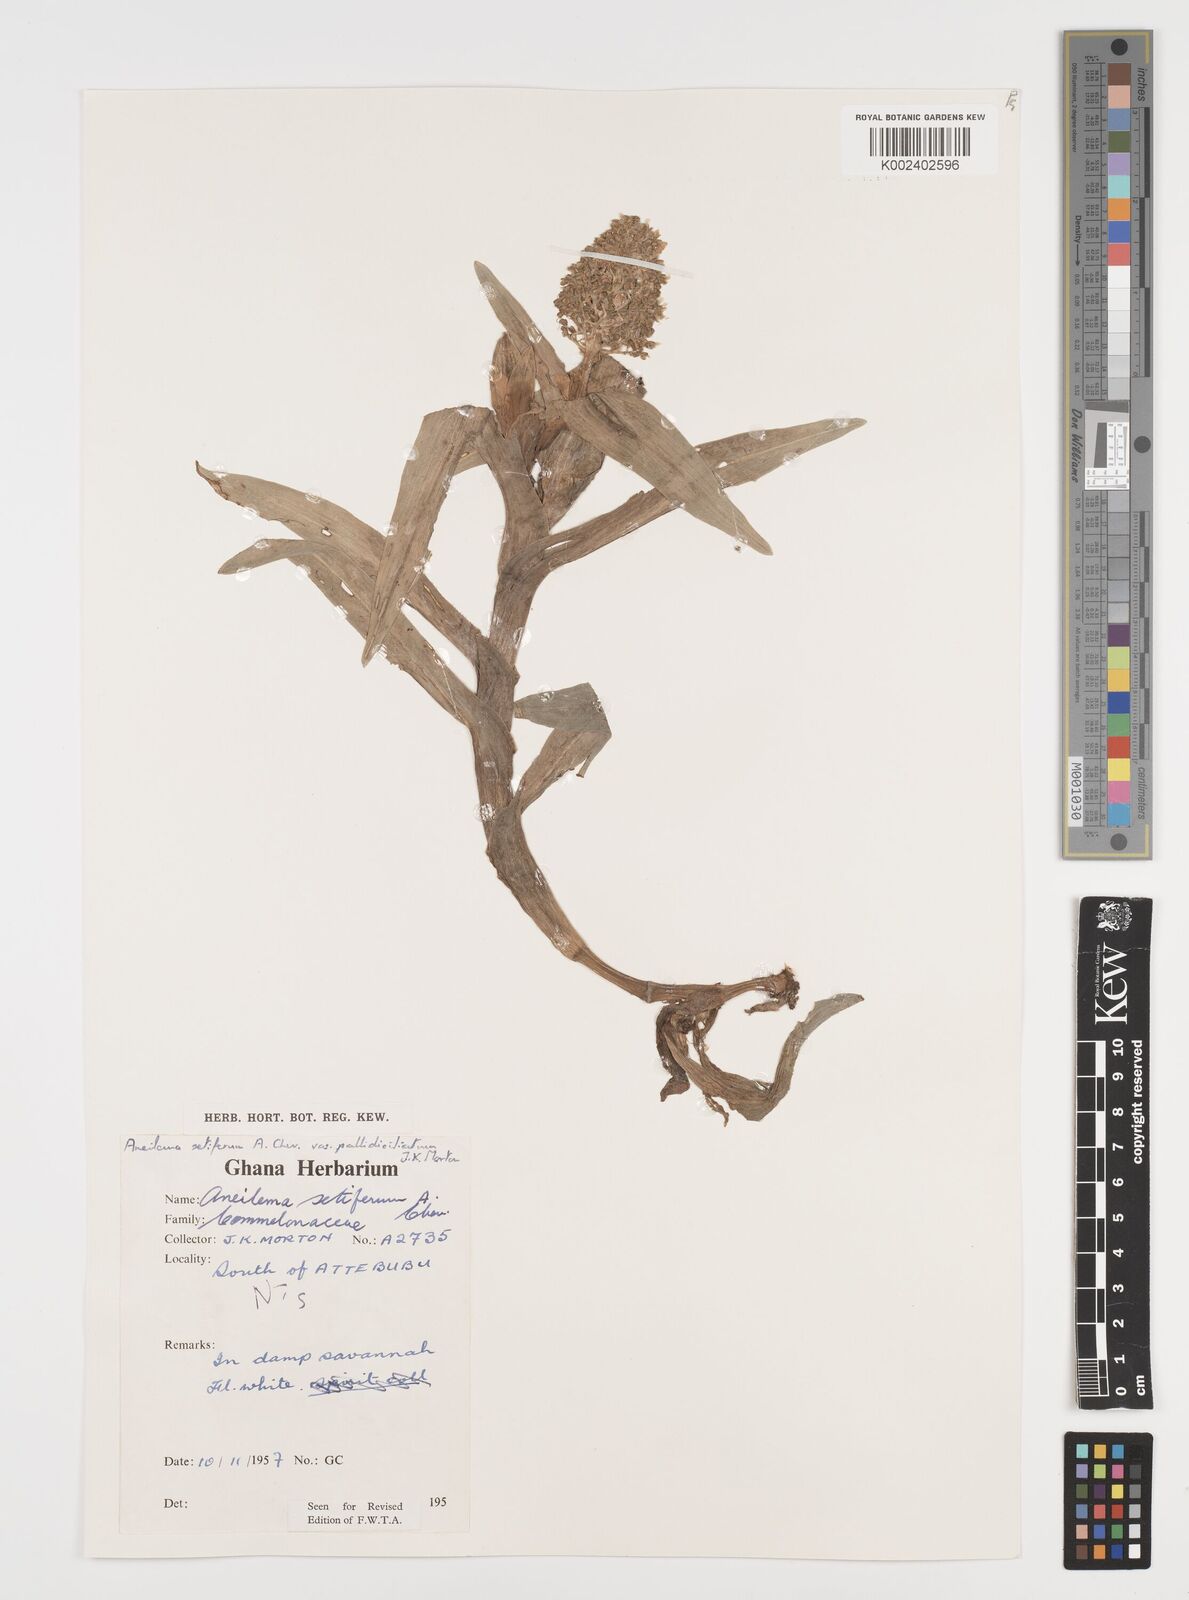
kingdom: Plantae
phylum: Tracheophyta
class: Liliopsida
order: Commelinales
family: Commelinaceae
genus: Aneilema
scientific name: Aneilema setiferum
